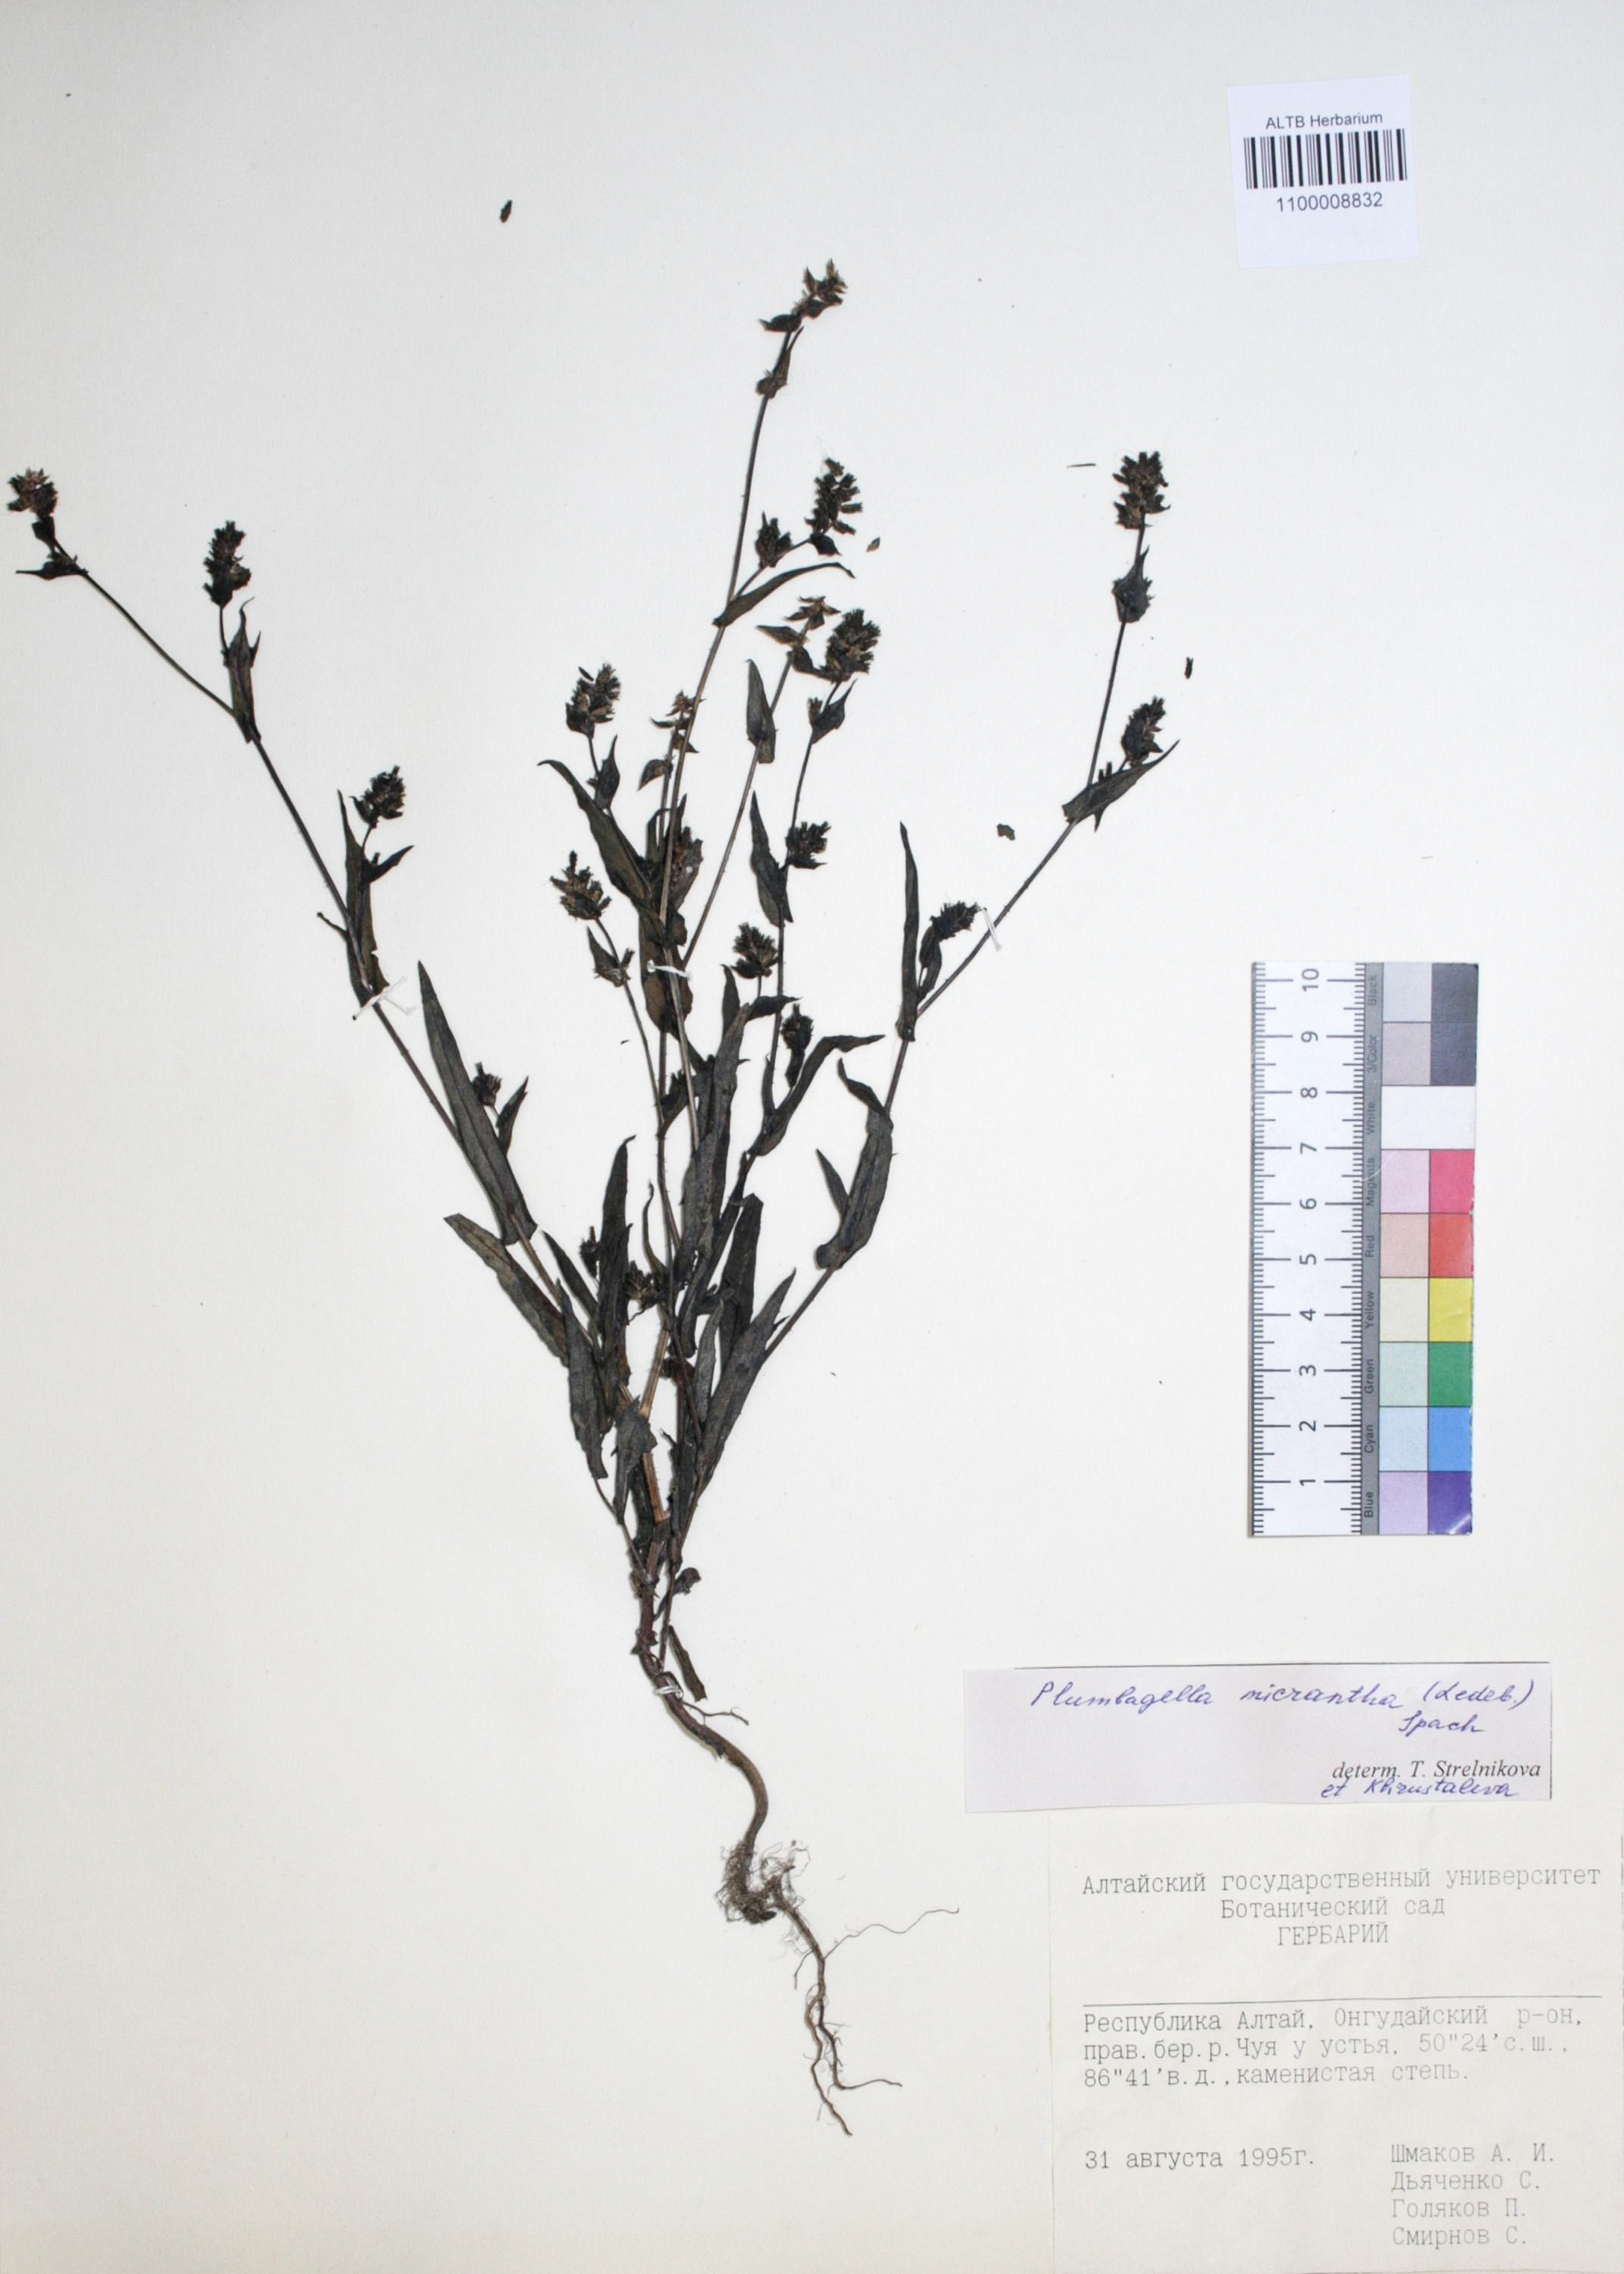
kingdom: Plantae
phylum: Tracheophyta
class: Magnoliopsida
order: Caryophyllales
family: Plumbaginaceae
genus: Plumbagella
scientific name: Plumbagella micrantha
